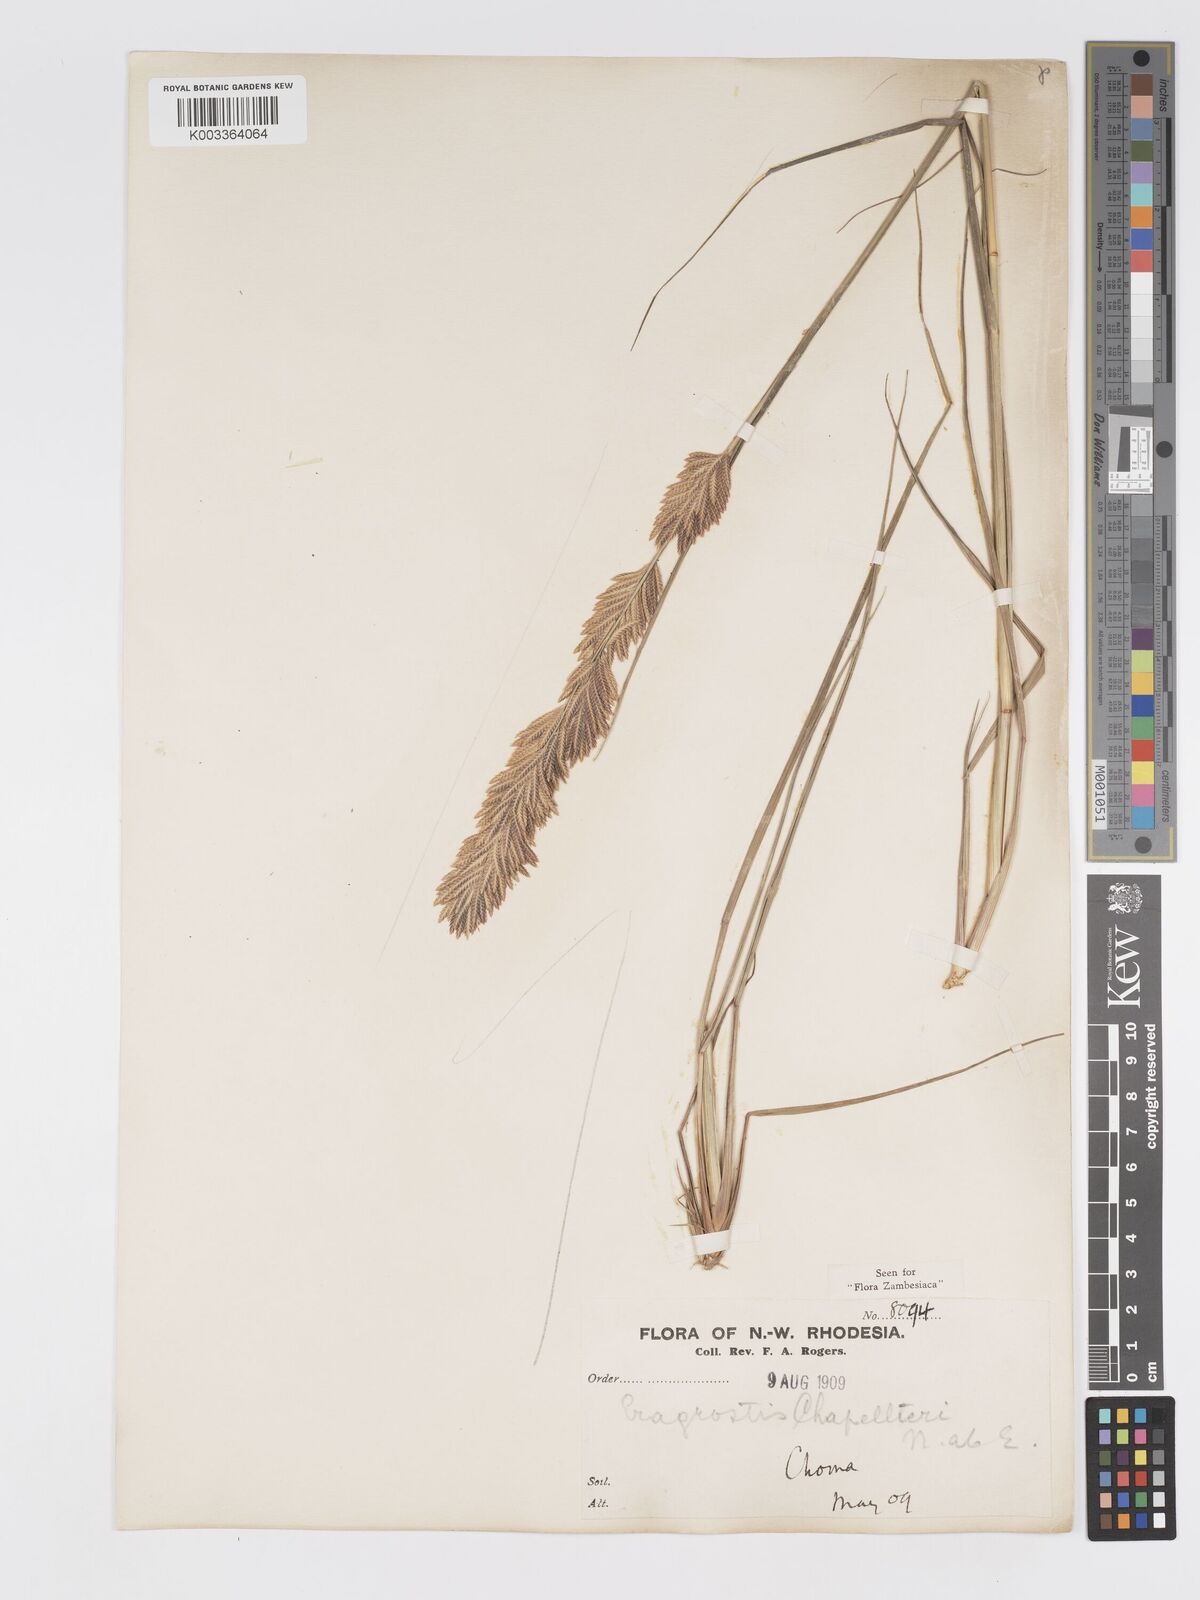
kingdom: Plantae
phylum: Tracheophyta
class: Liliopsida
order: Poales
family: Poaceae
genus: Eragrostis
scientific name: Eragrostis chapelieri
